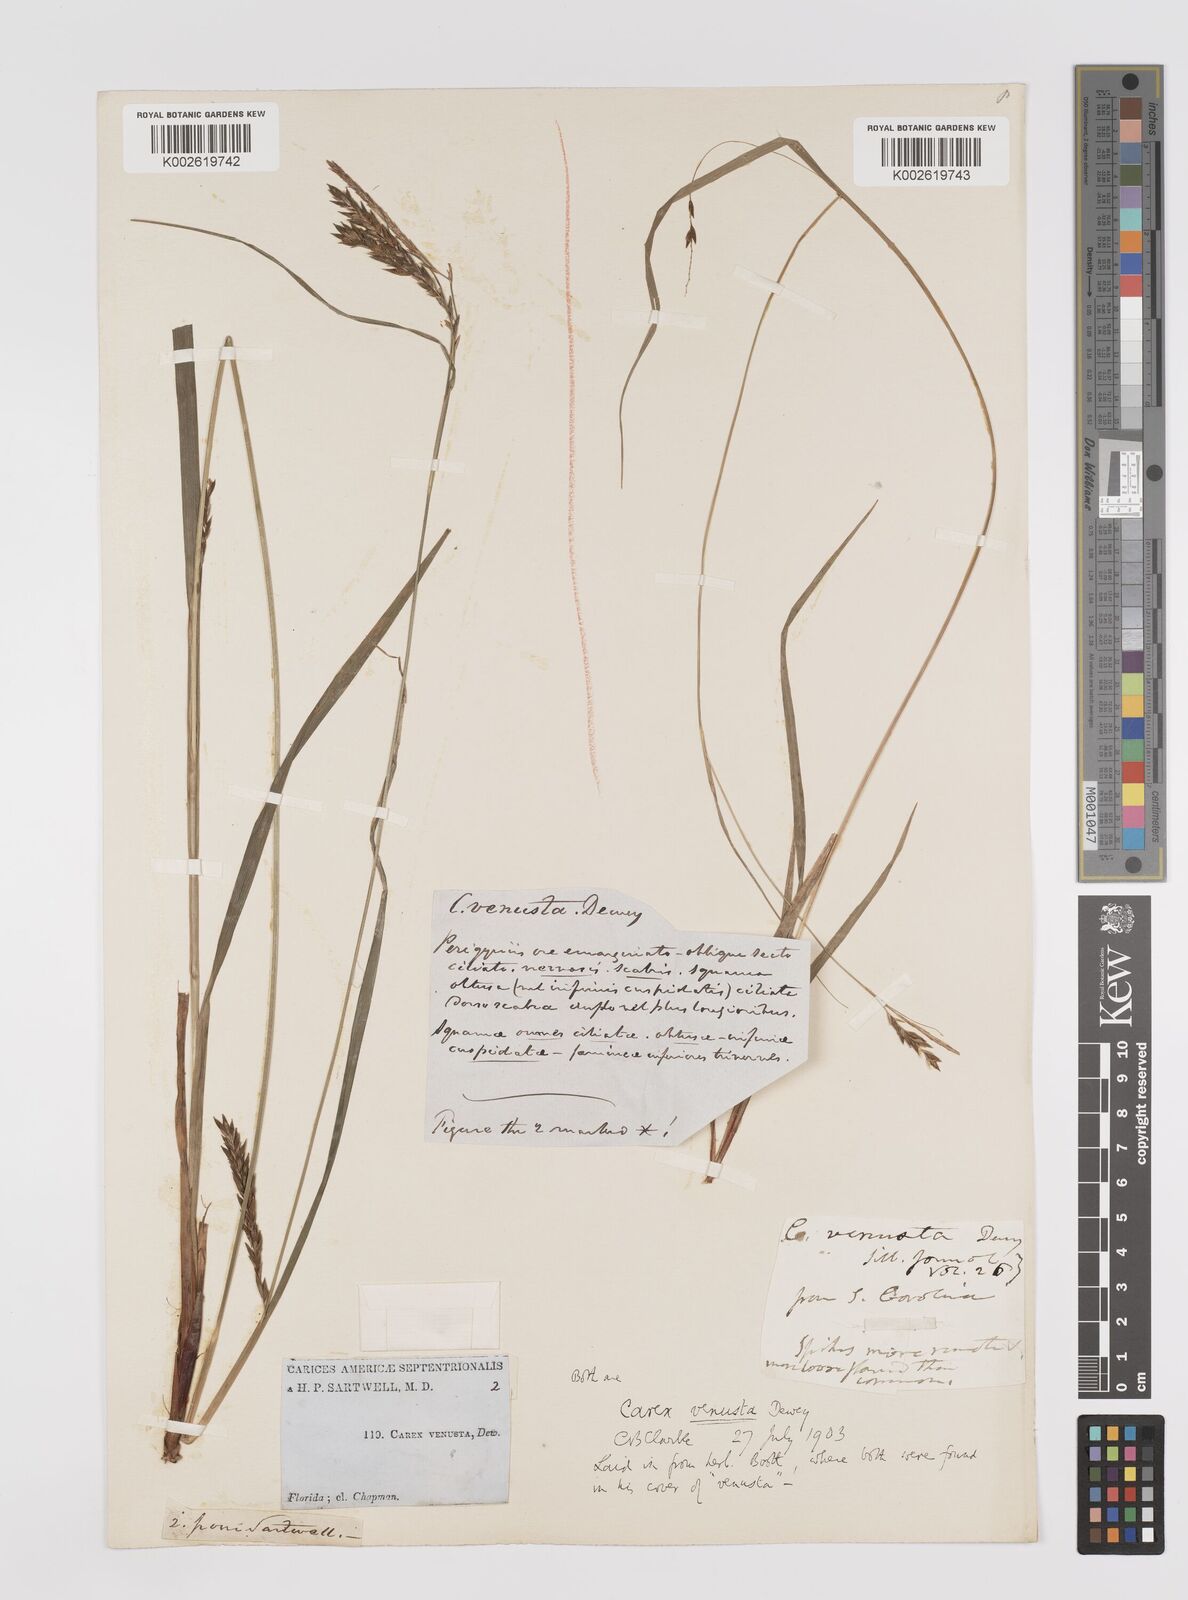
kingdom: Plantae
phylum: Tracheophyta
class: Liliopsida
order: Poales
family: Cyperaceae
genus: Carex
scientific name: Carex venusta
